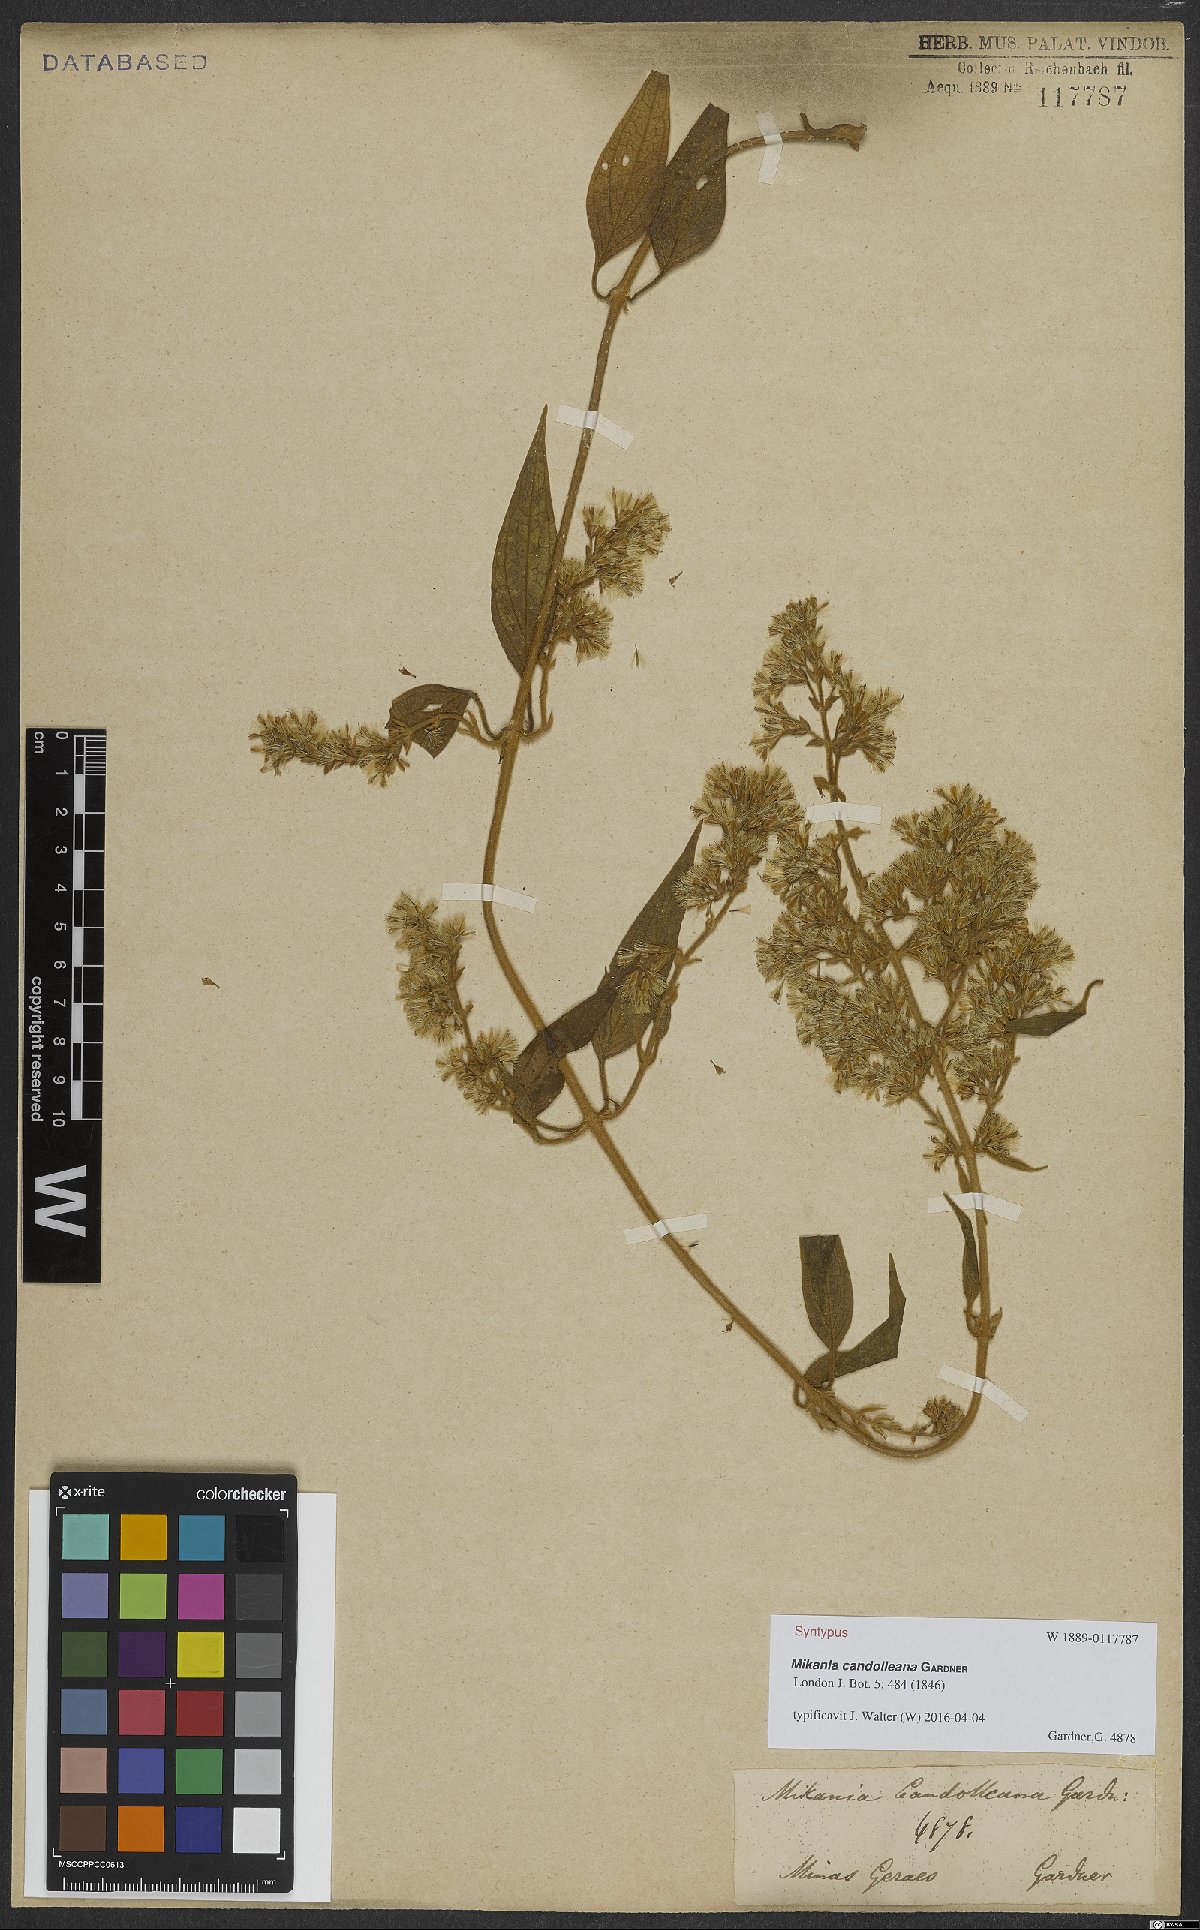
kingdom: Plantae
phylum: Tracheophyta
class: Magnoliopsida
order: Asterales
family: Asteraceae
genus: Mikania
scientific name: Mikania candolleana
